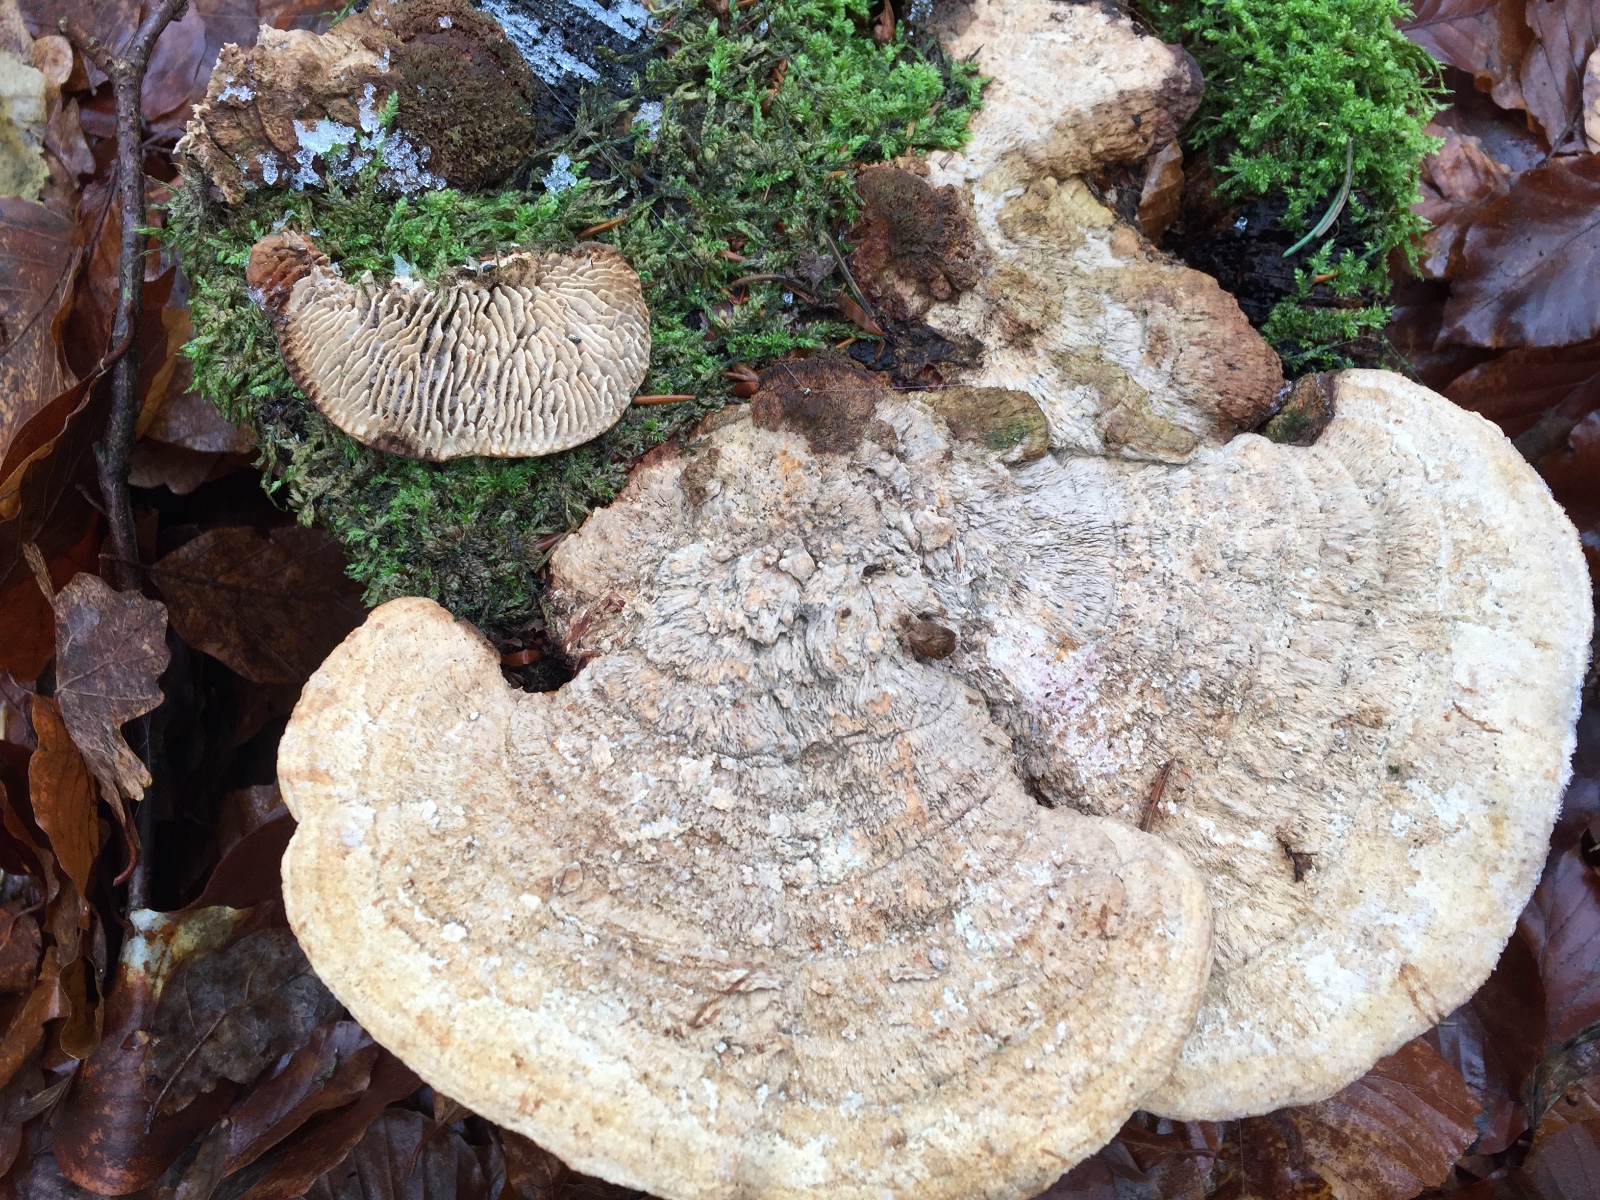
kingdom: Fungi
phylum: Basidiomycota
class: Agaricomycetes
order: Polyporales
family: Fomitopsidaceae
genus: Daedalea
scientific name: Daedalea quercina
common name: ege-labyrintsvamp
